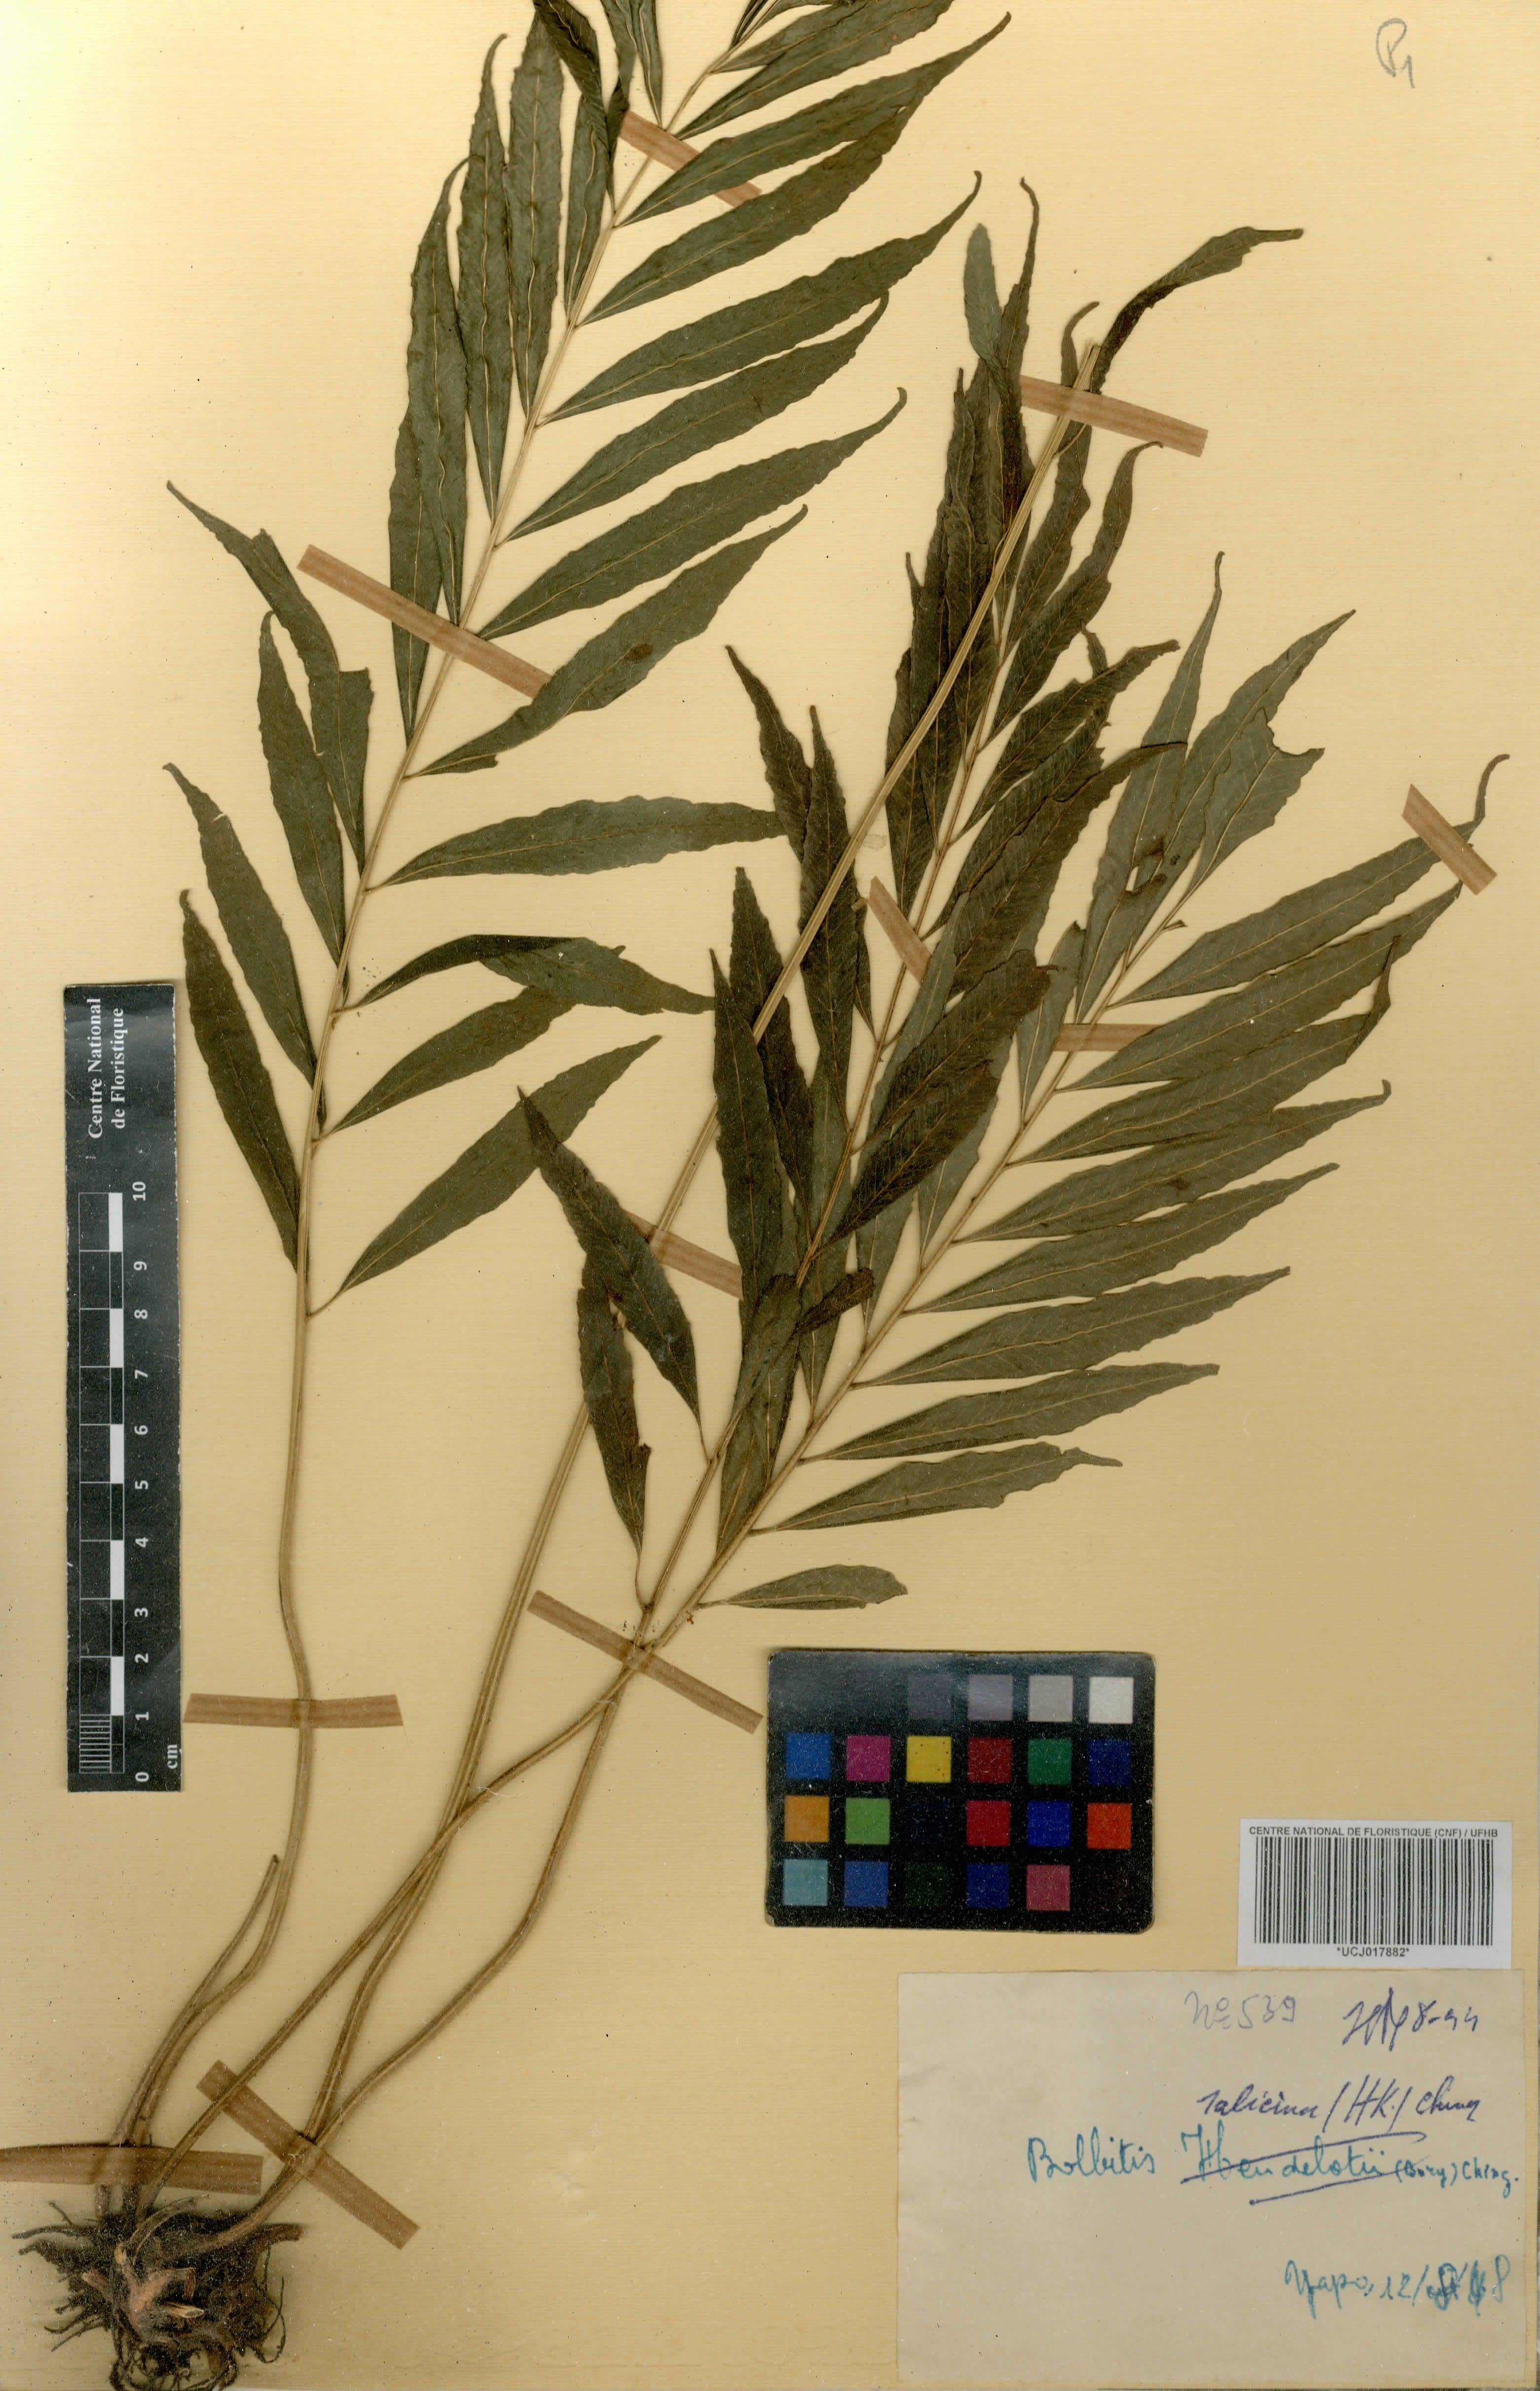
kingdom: Plantae
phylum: Tracheophyta
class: Polypodiopsida
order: Polypodiales
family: Dryopteridaceae
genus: Bolbitis
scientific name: Bolbitis salicina
